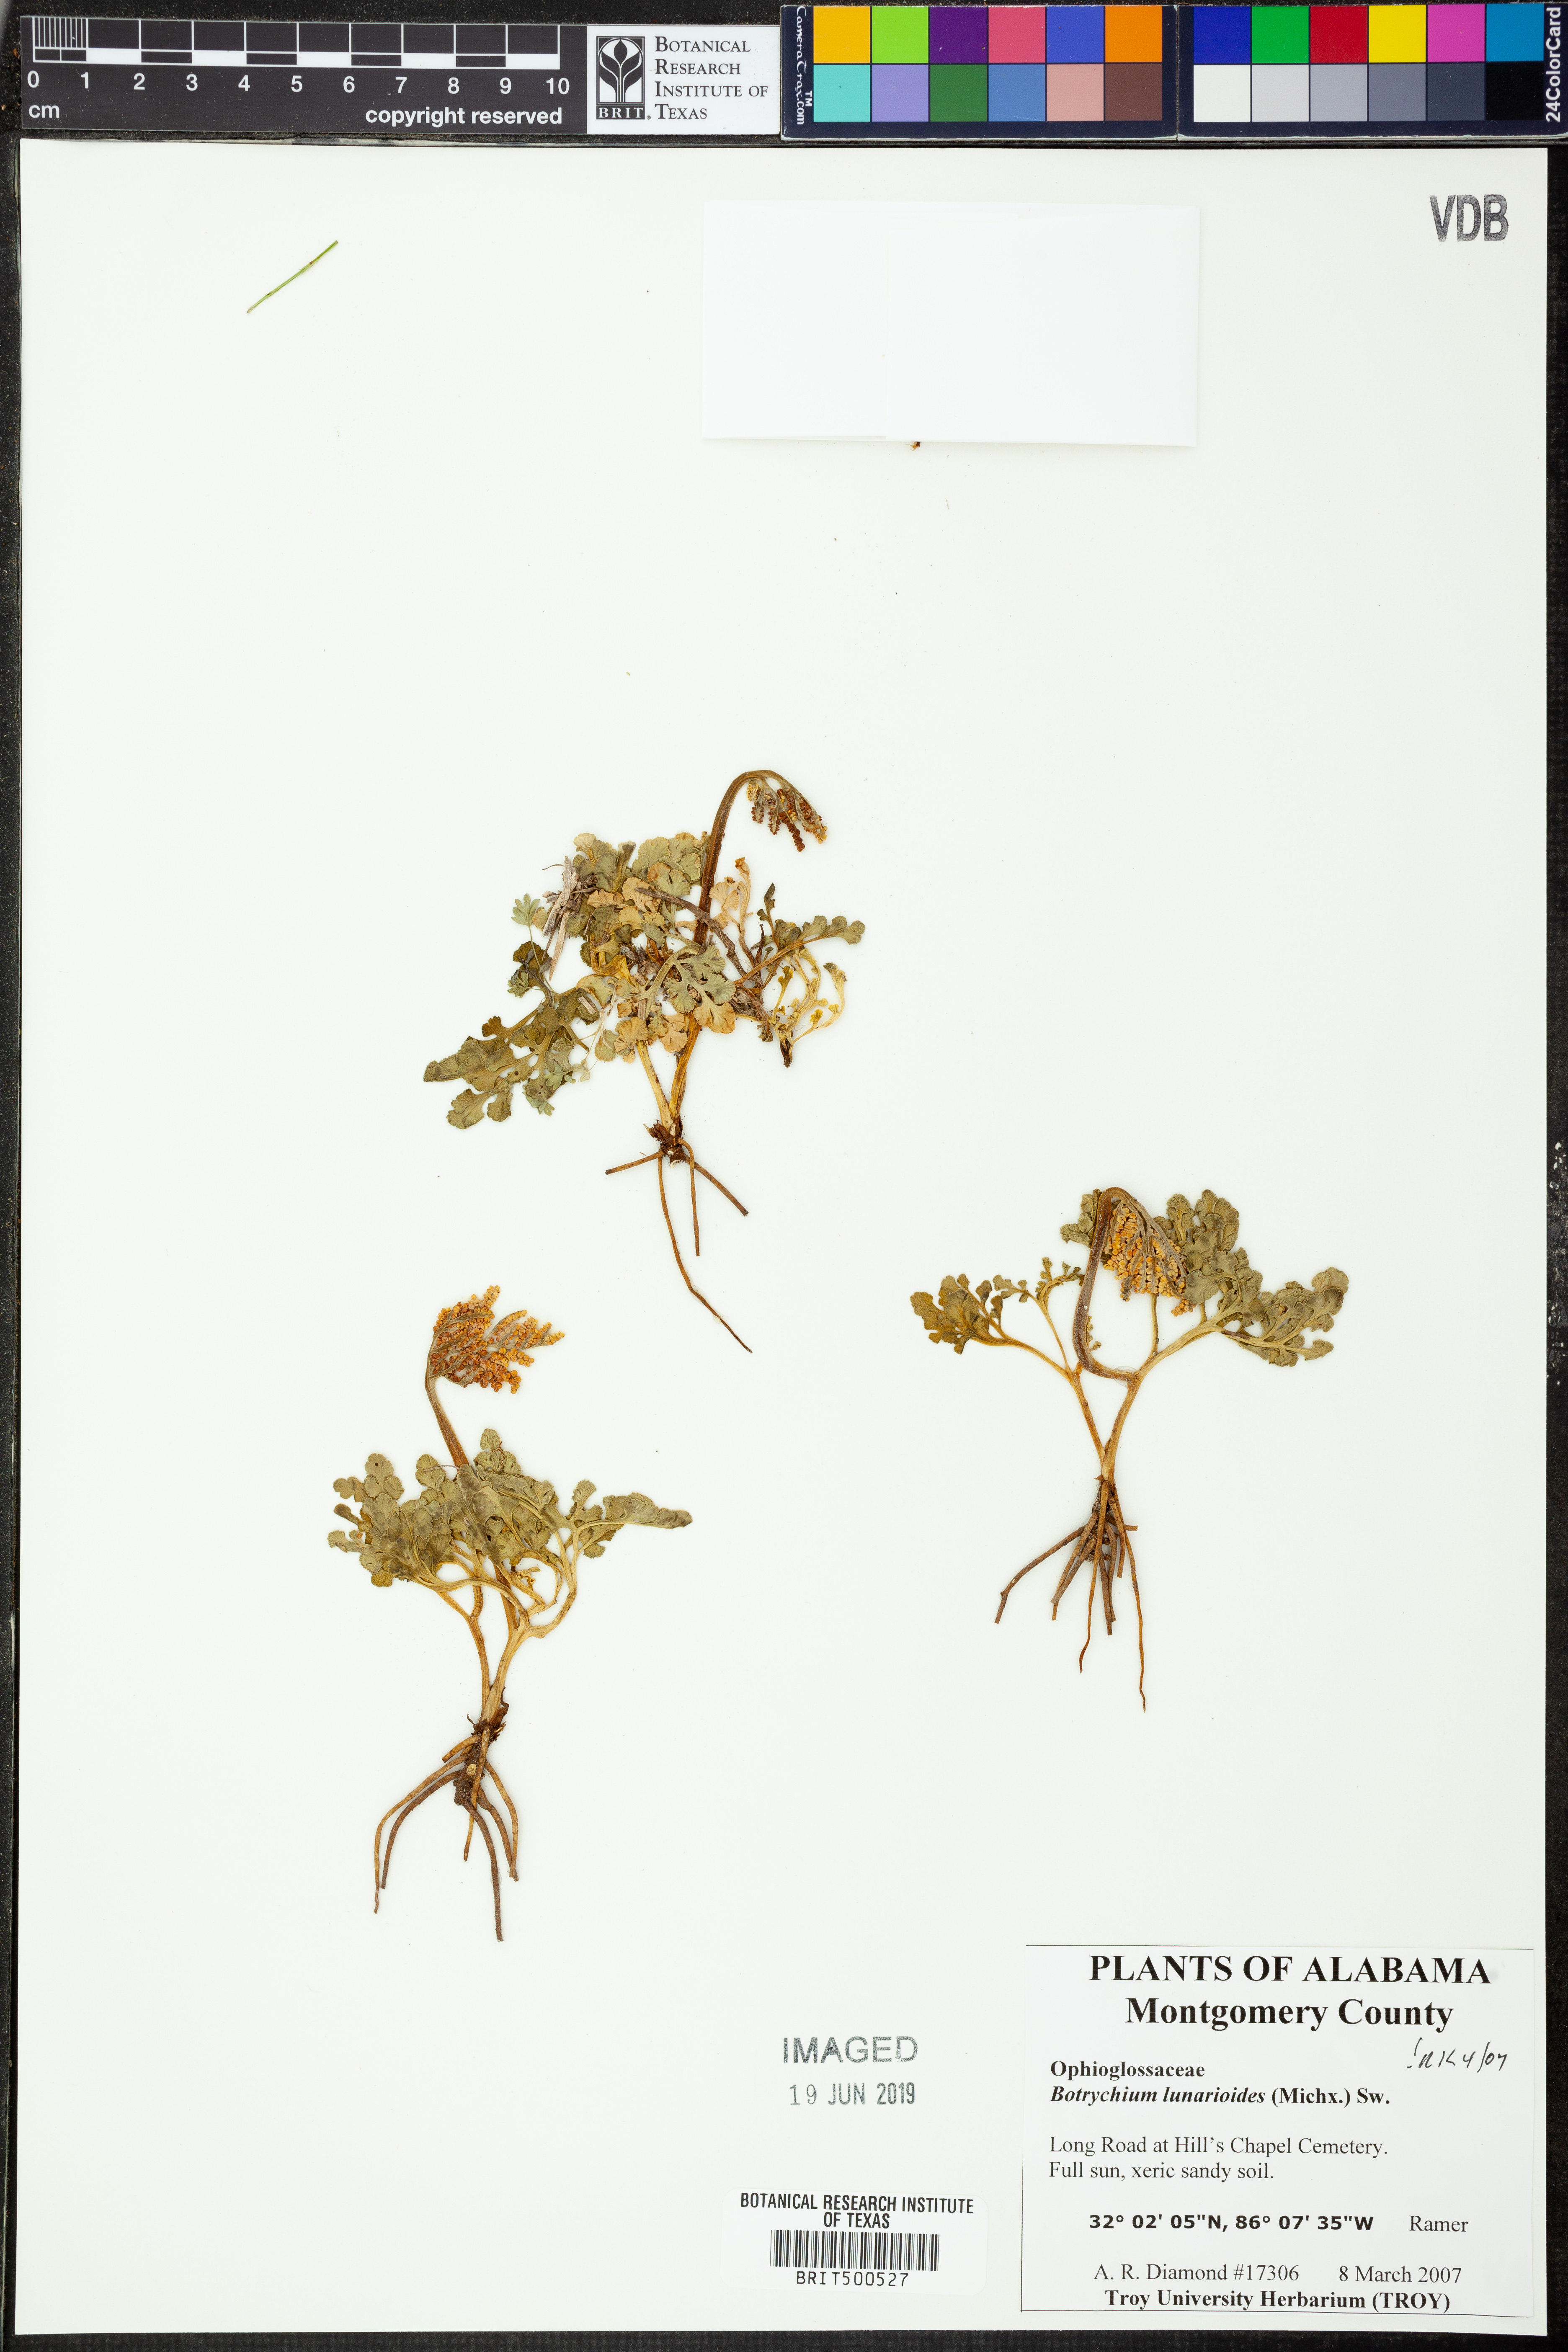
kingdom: Plantae
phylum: Tracheophyta
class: Polypodiopsida
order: Ophioglossales
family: Ophioglossaceae
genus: Sceptridium
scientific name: Sceptridium lunarioides
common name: Prostrate grapefern
